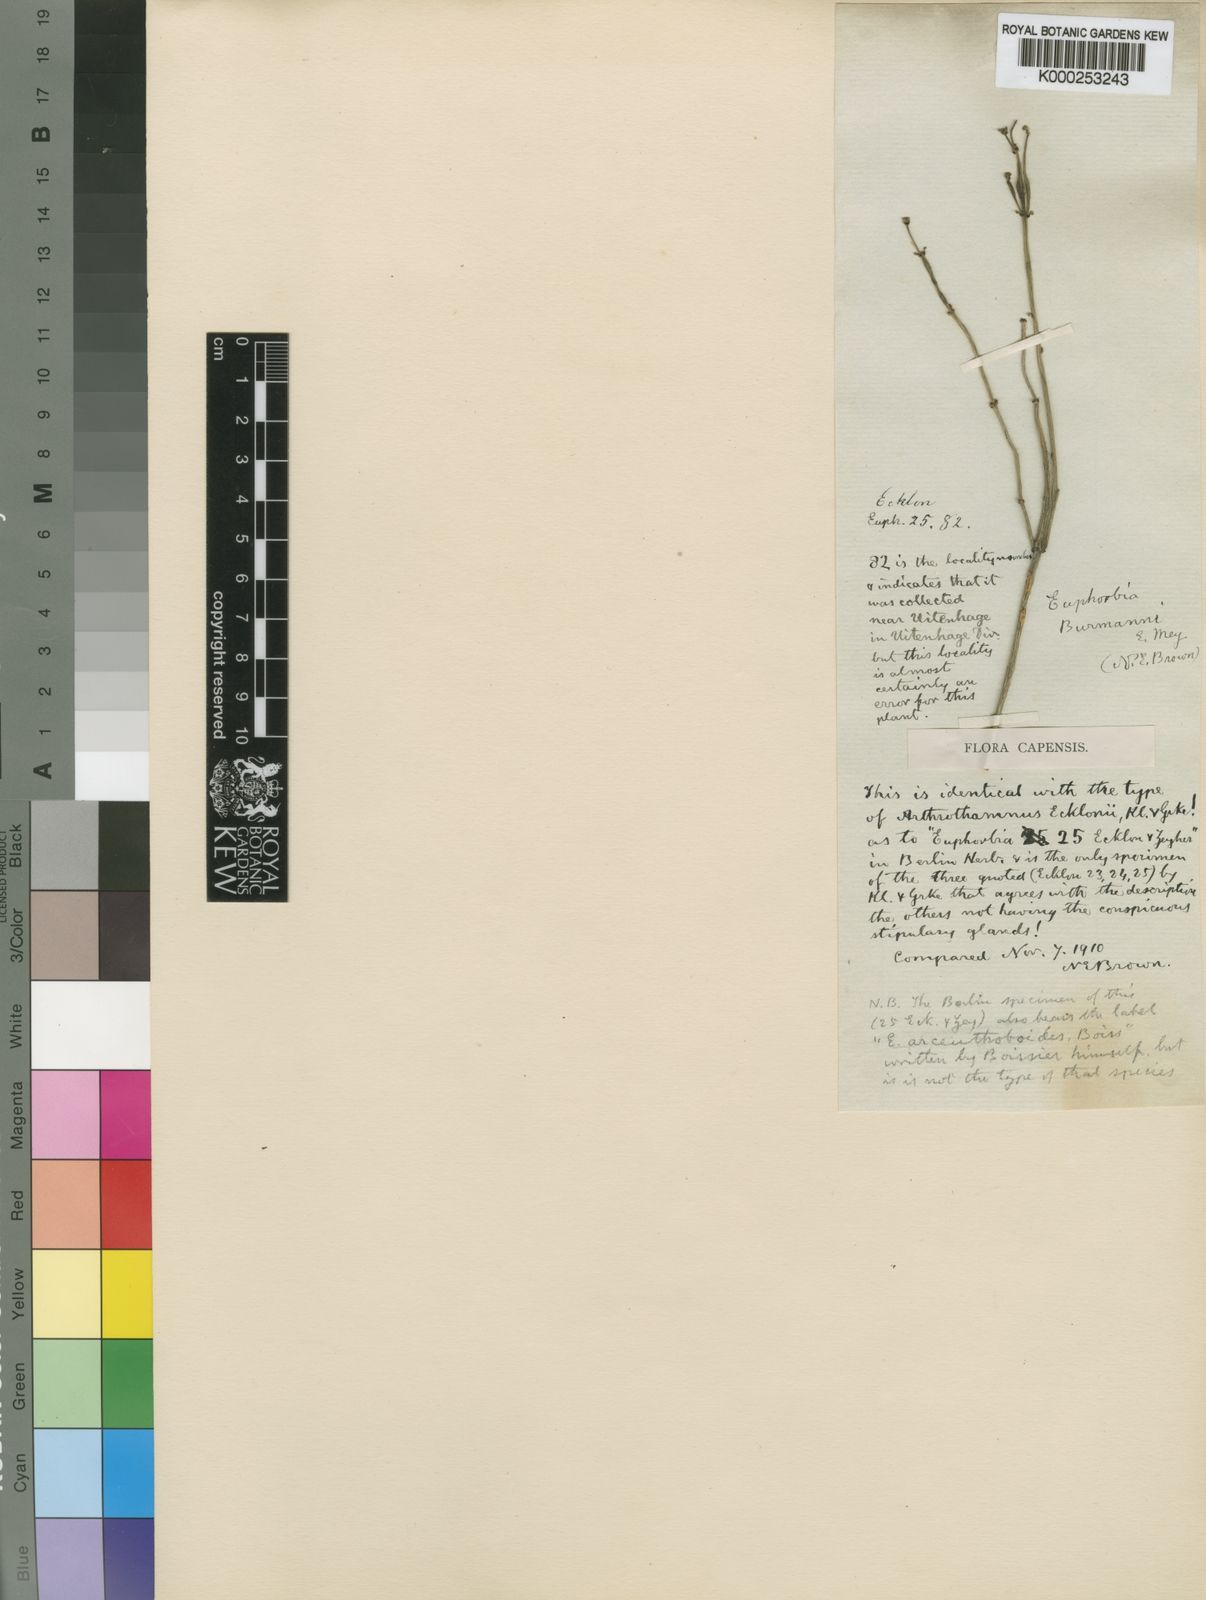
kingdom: Plantae
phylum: Tracheophyta
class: Magnoliopsida
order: Malpighiales
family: Euphorbiaceae
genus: Euphorbia
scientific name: Euphorbia burmanni
